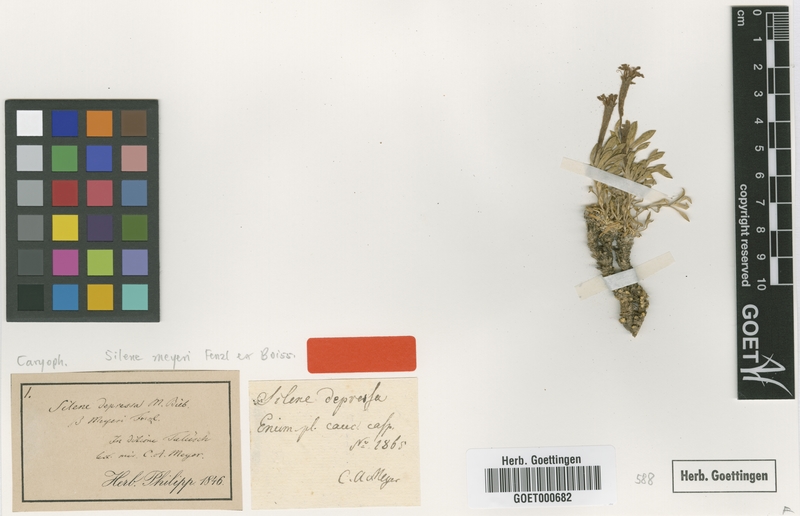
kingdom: Plantae
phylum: Tracheophyta
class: Magnoliopsida
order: Caryophyllales
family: Caryophyllaceae
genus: Silene
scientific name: Silene meyeri
